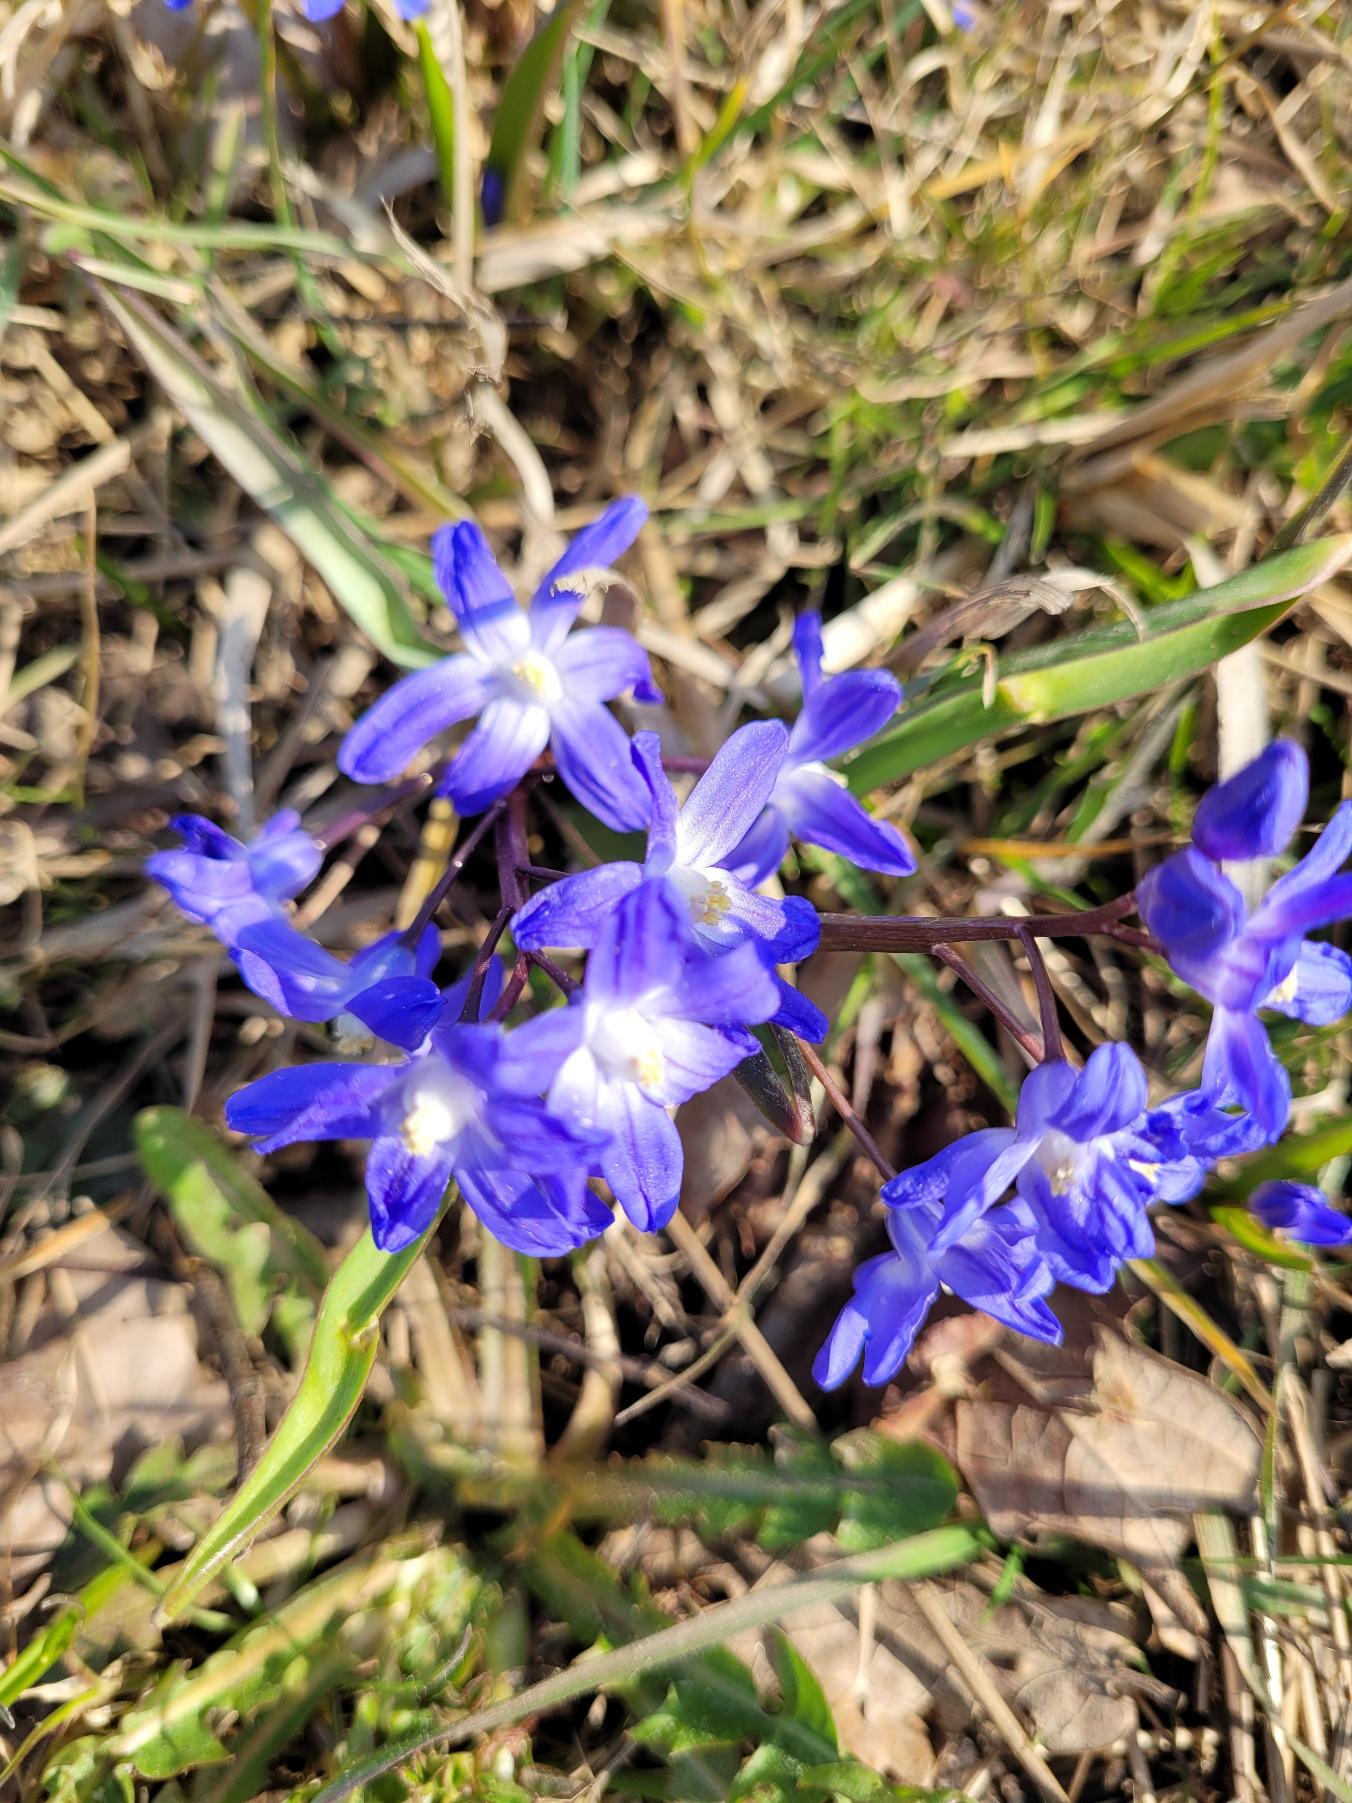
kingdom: Plantae
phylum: Tracheophyta
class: Liliopsida
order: Asparagales
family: Asparagaceae
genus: Scilla
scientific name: Scilla sardensis
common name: Liden snepryd
